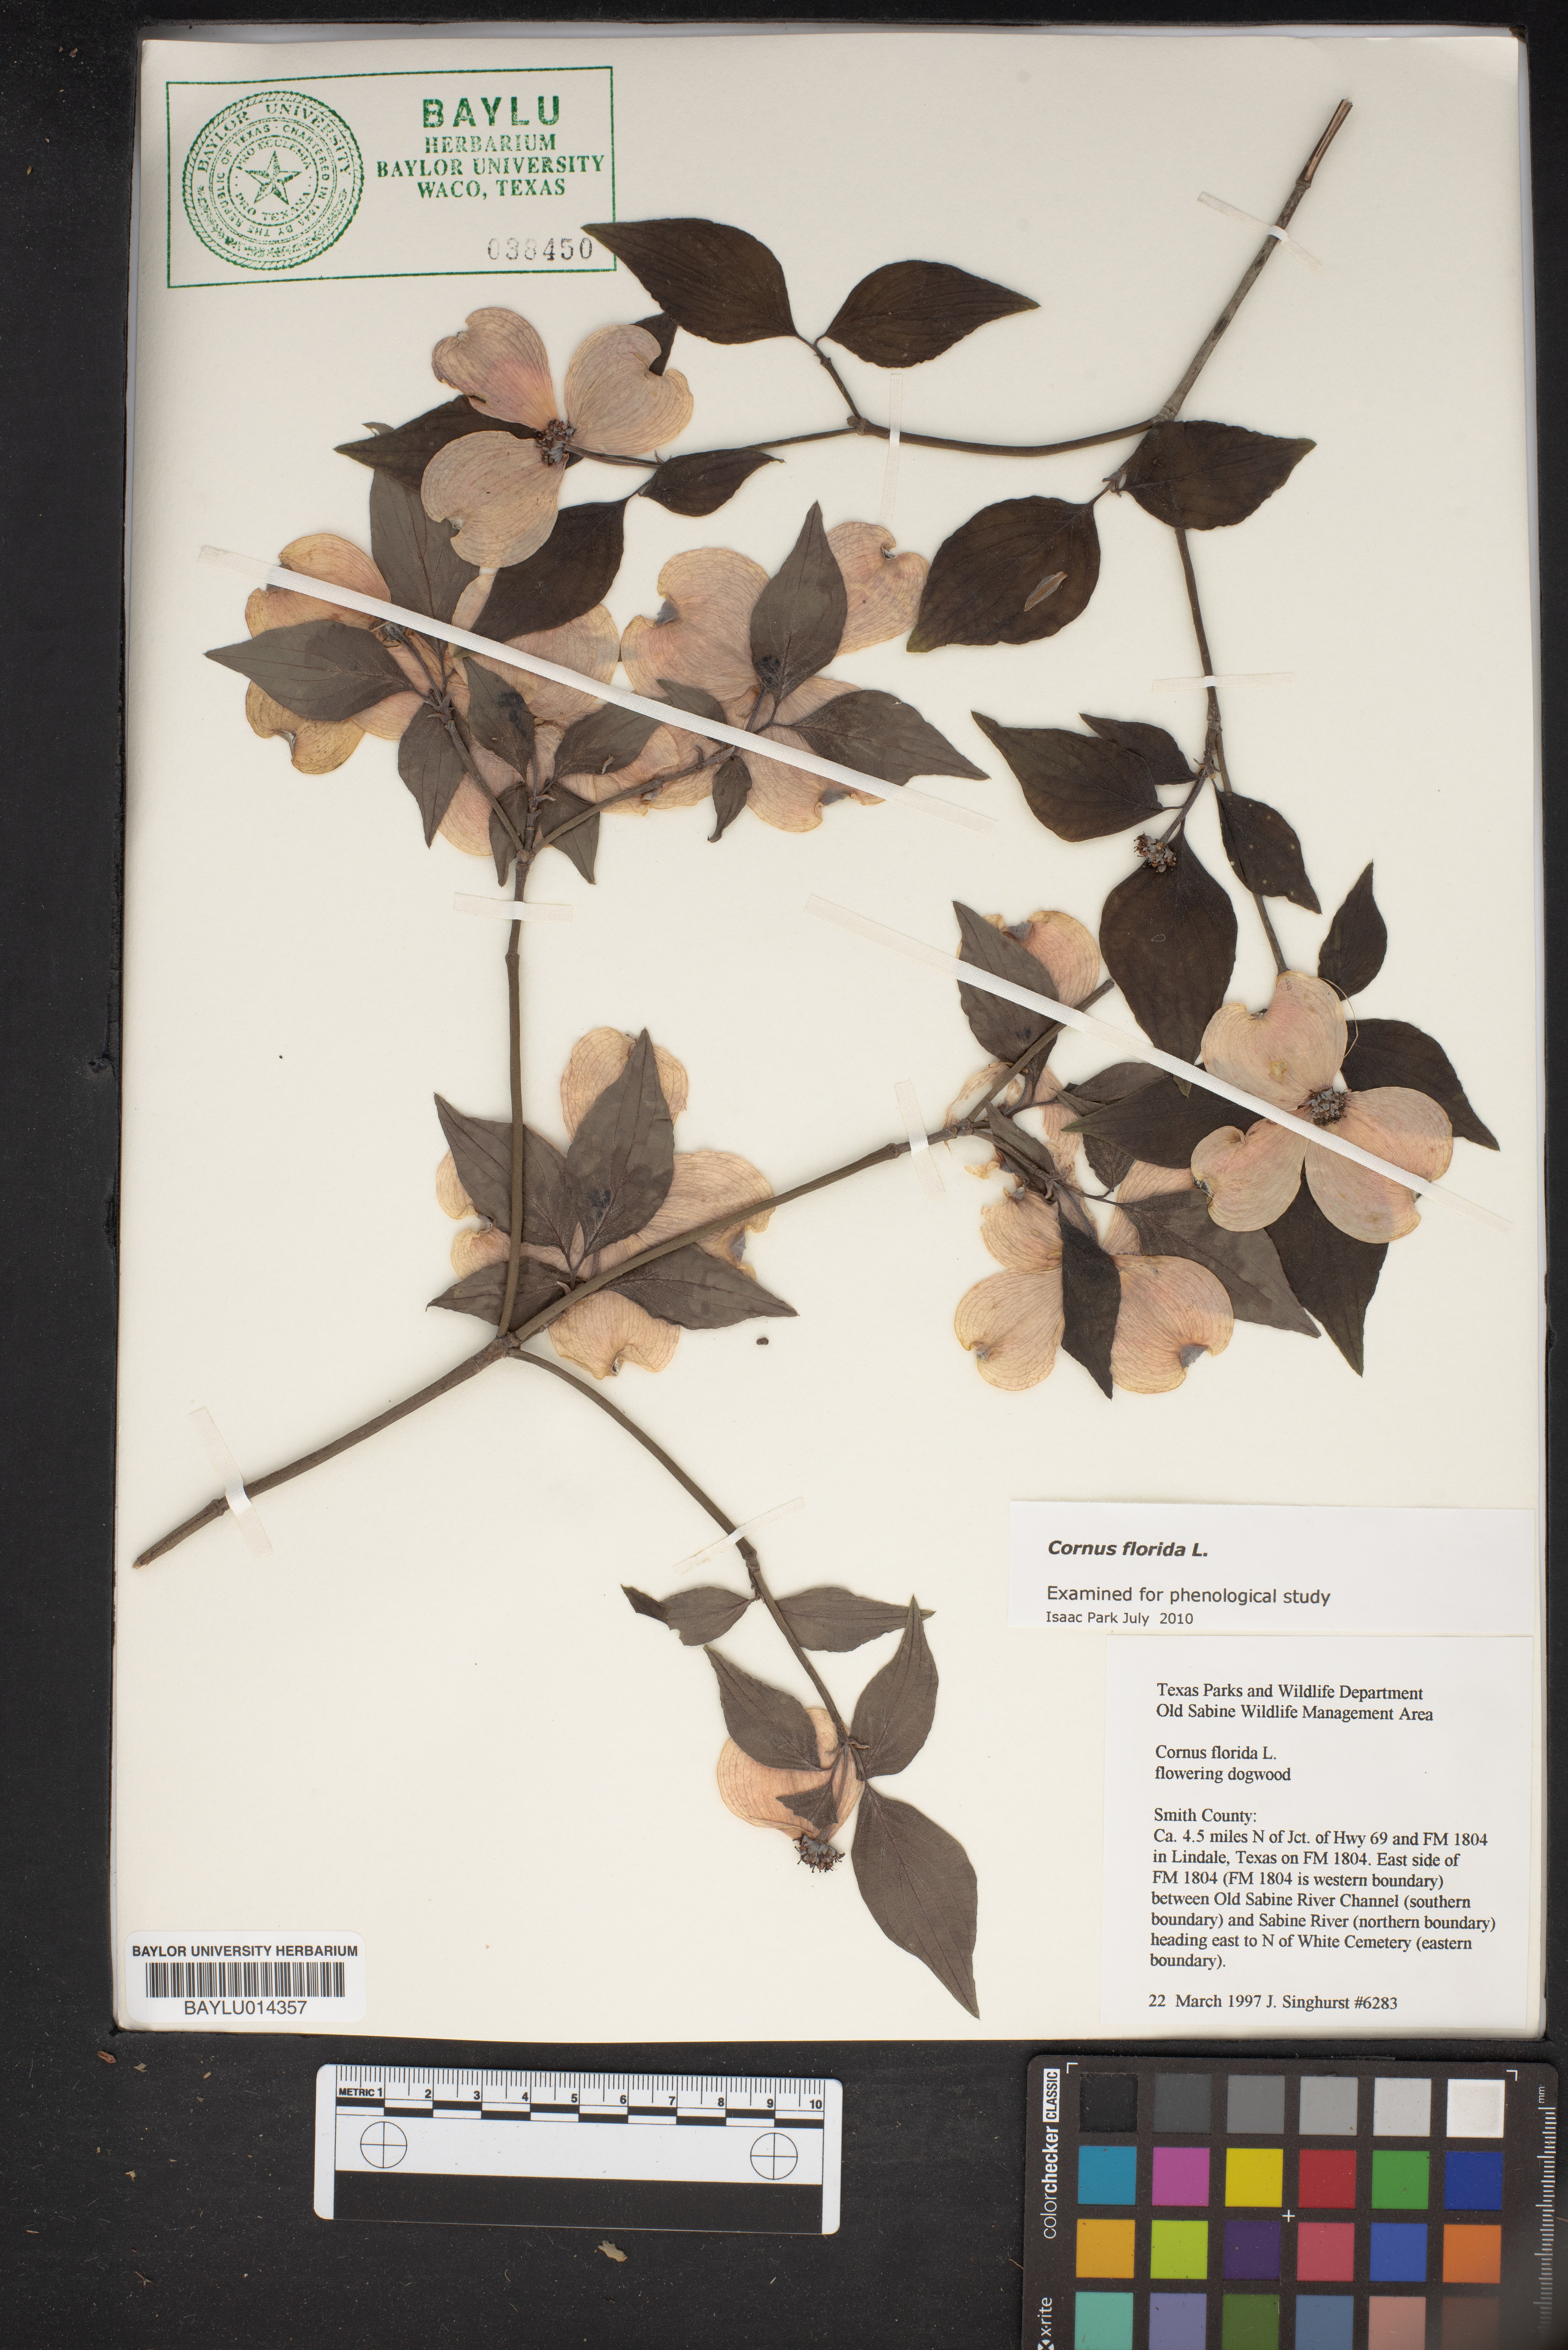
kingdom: Plantae
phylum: Tracheophyta
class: Magnoliopsida
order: Cornales
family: Cornaceae
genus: Cornus
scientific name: Cornus florida
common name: Flowering dogwood
